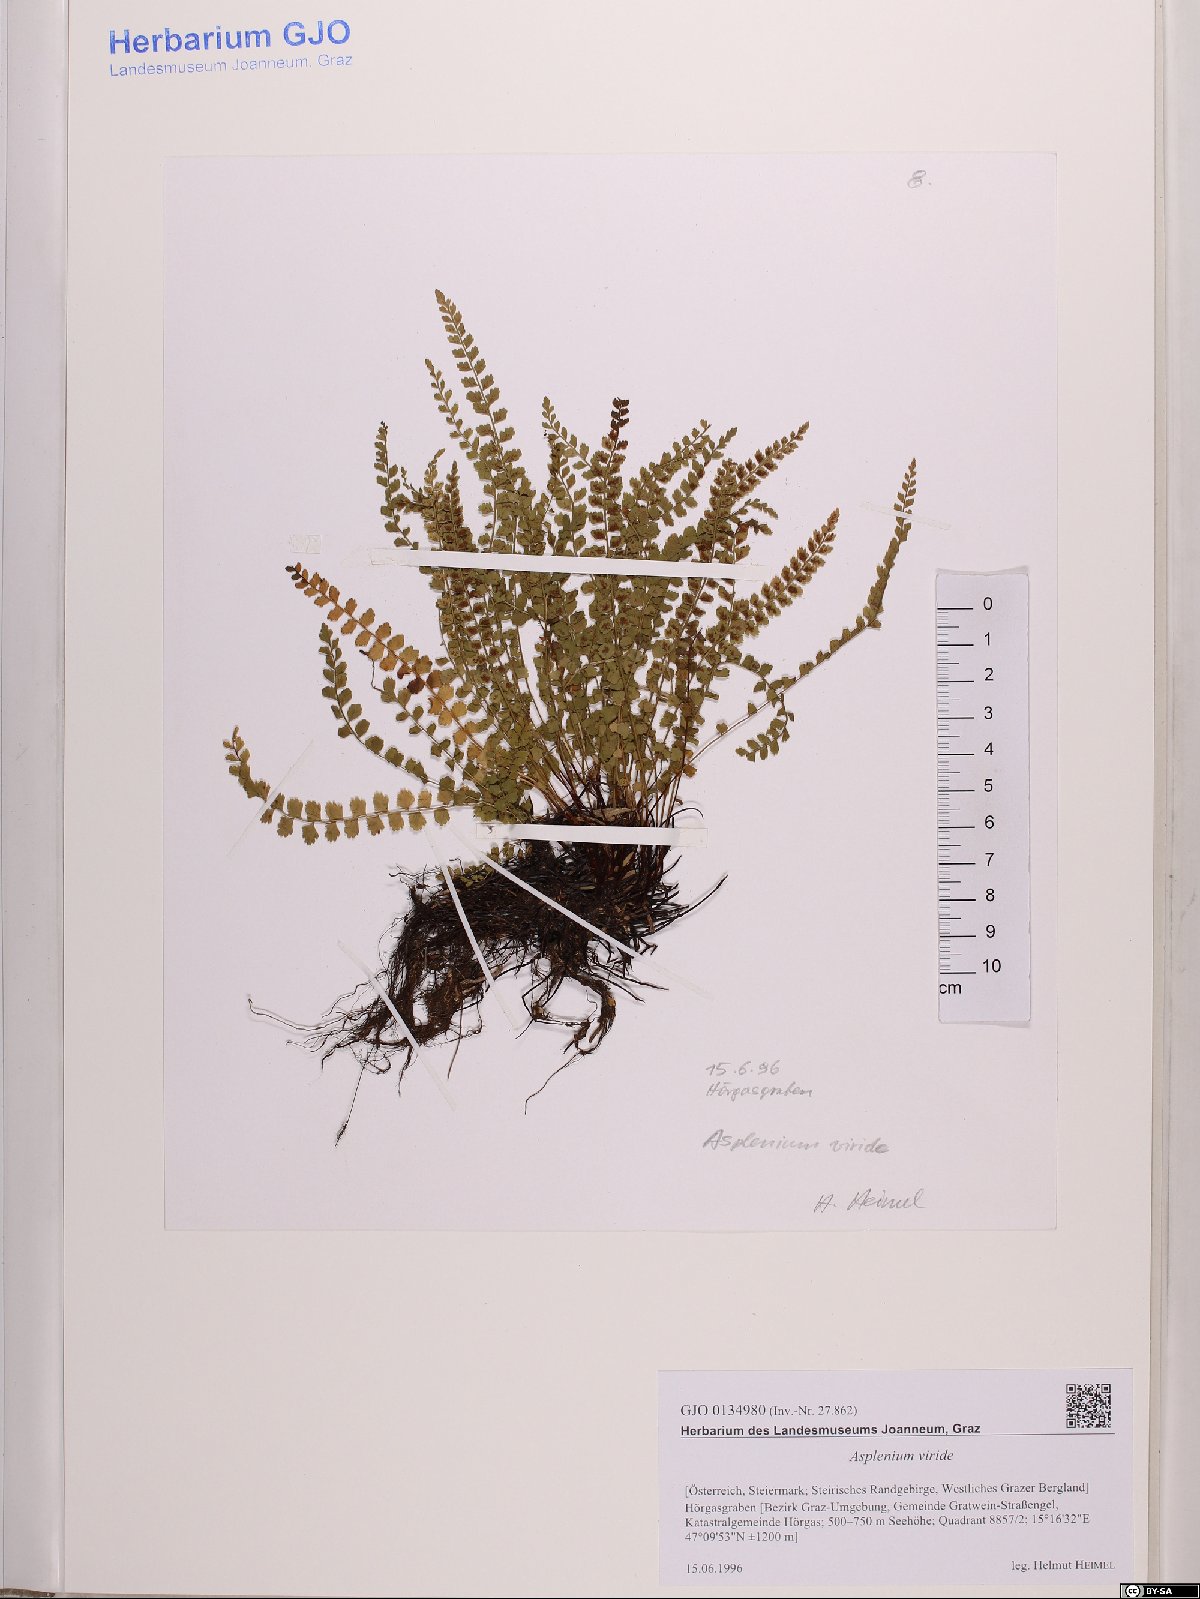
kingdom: Plantae
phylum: Tracheophyta
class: Polypodiopsida
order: Polypodiales
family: Aspleniaceae
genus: Asplenium
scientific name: Asplenium viride
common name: Green spleenwort
